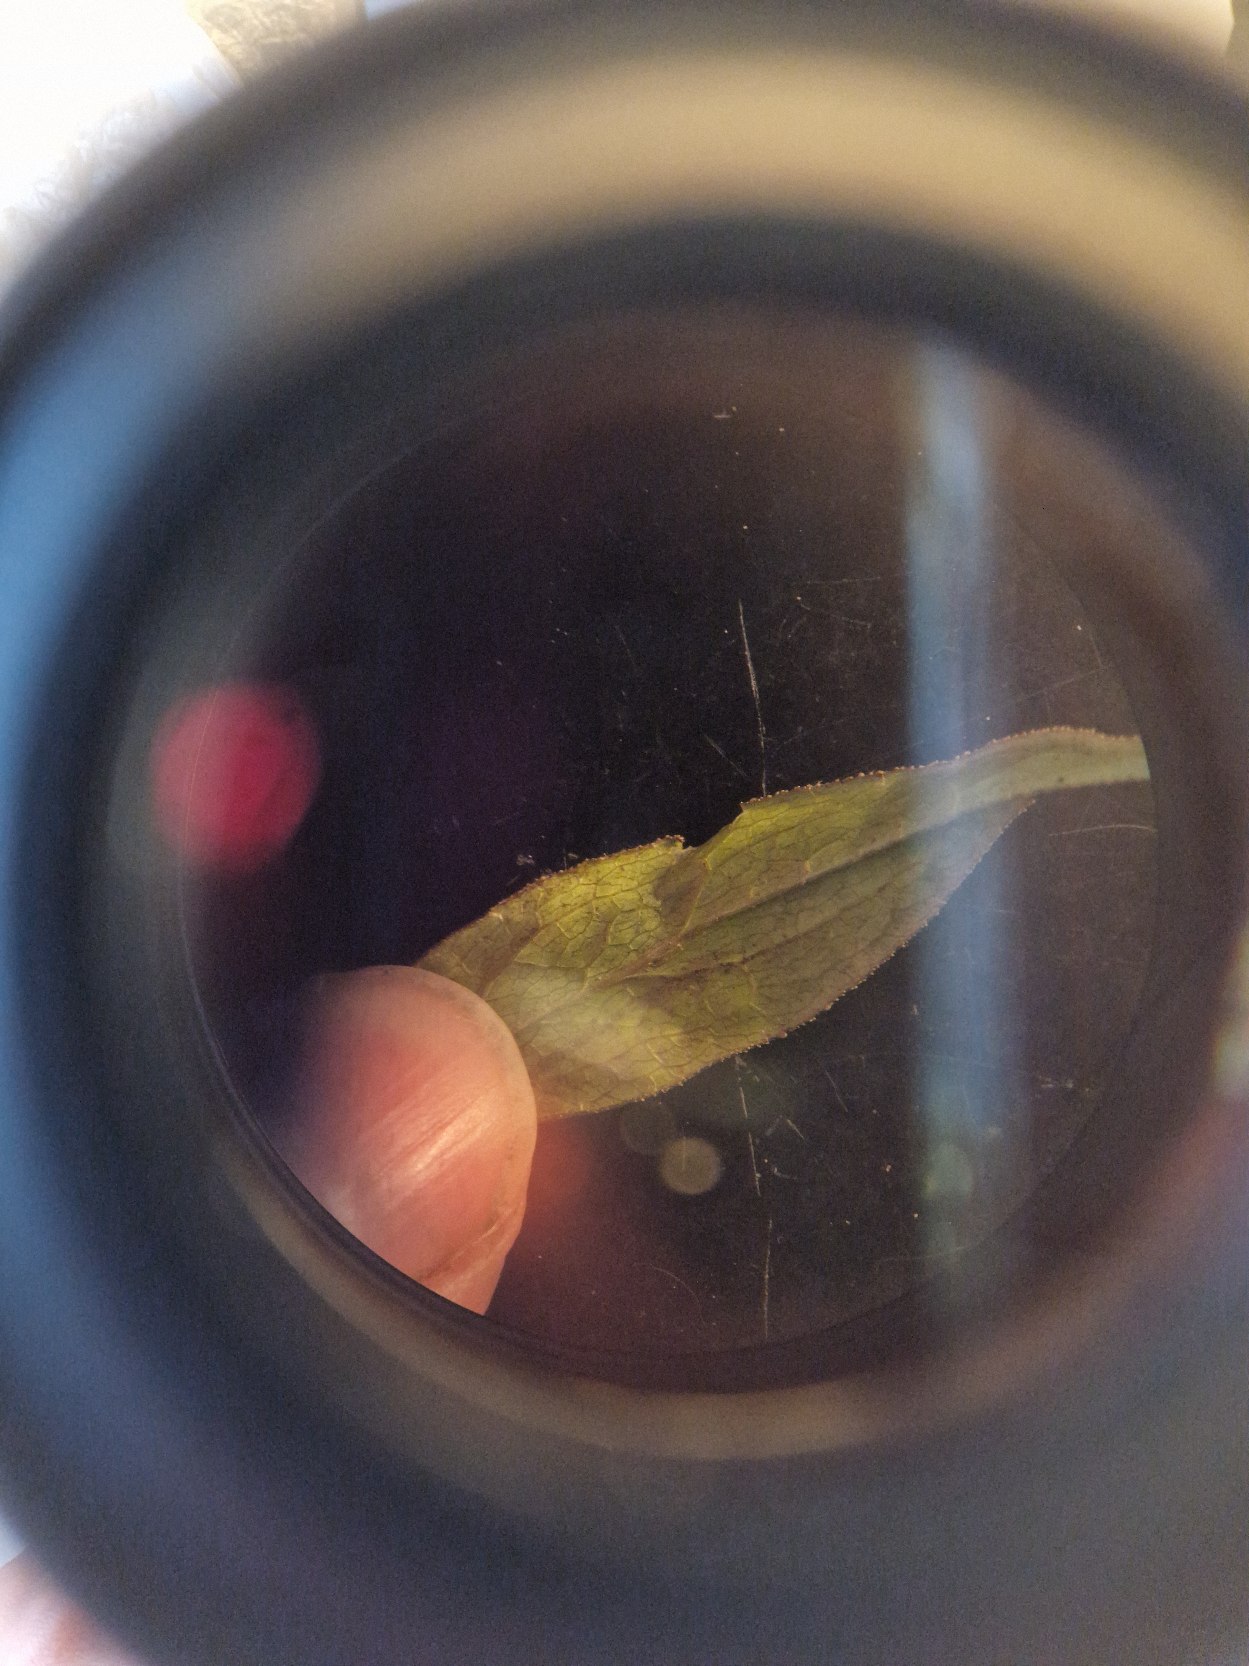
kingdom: Plantae
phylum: Tracheophyta
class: Magnoliopsida
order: Asterales
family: Asteraceae
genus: Pentanema
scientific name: Pentanema salicinum
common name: Pile-alant
